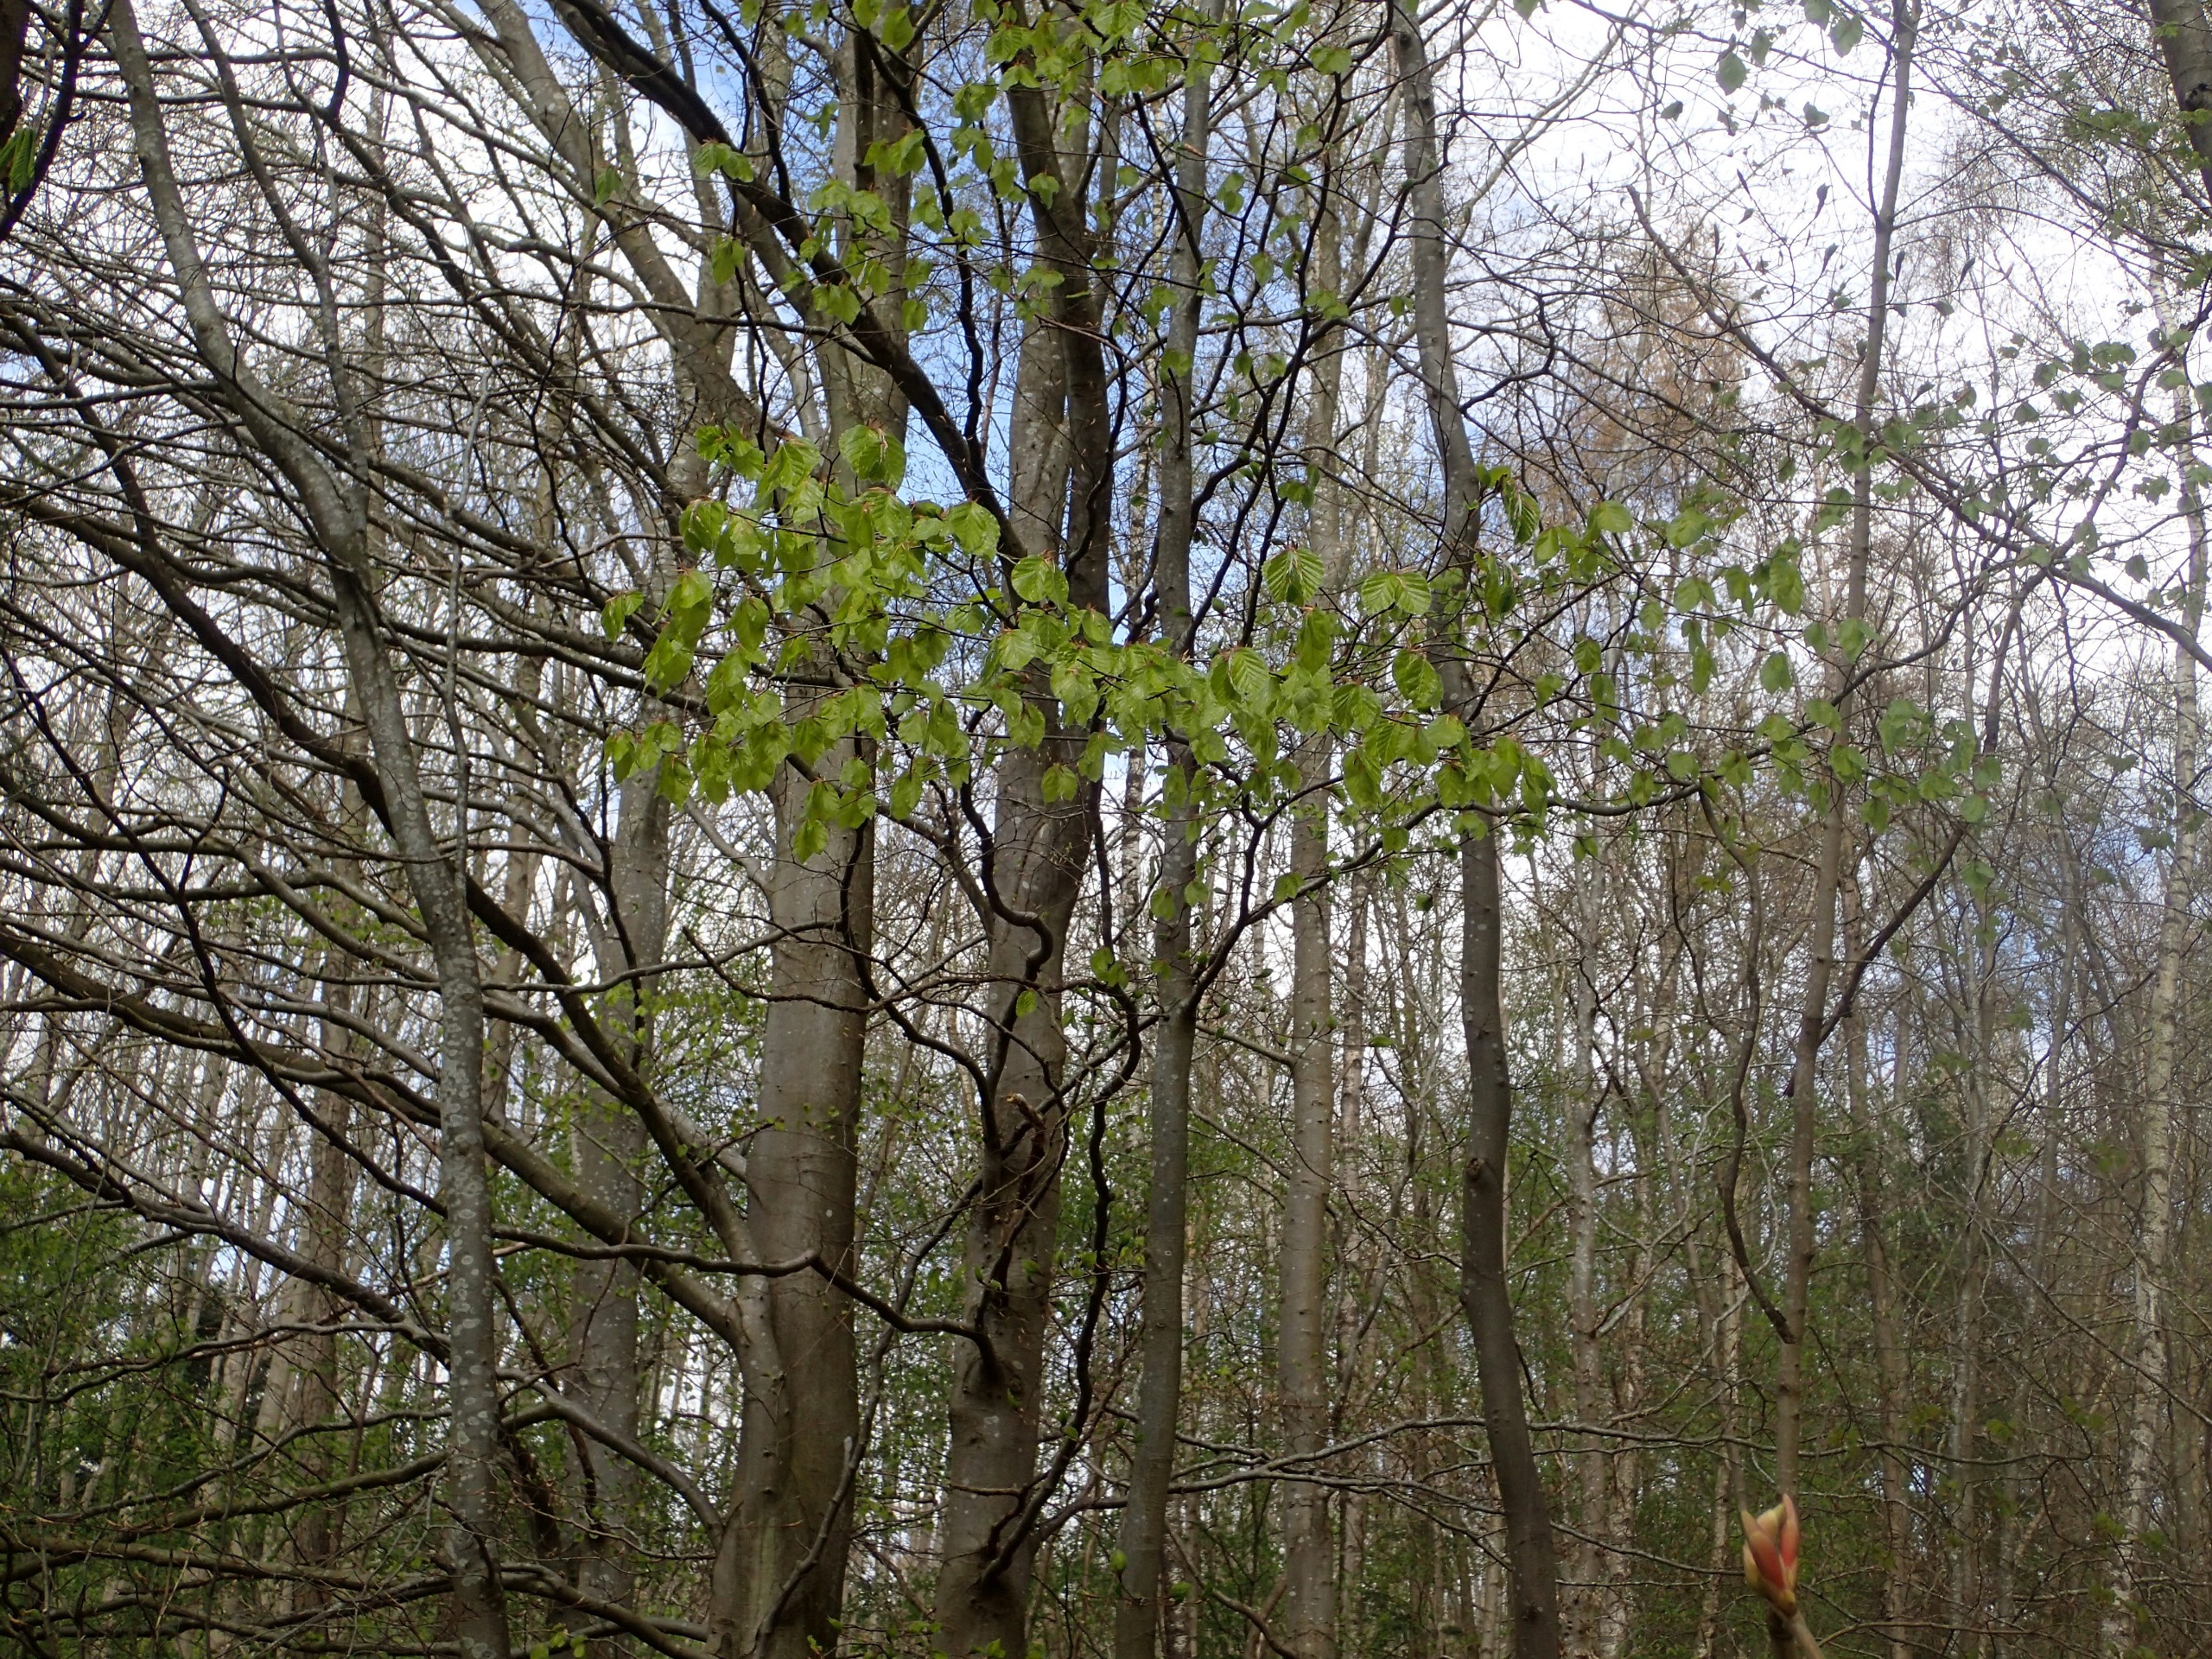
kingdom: Plantae
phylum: Tracheophyta
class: Magnoliopsida
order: Fagales
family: Fagaceae
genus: Fagus
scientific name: Fagus sylvatica
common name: Bøg
